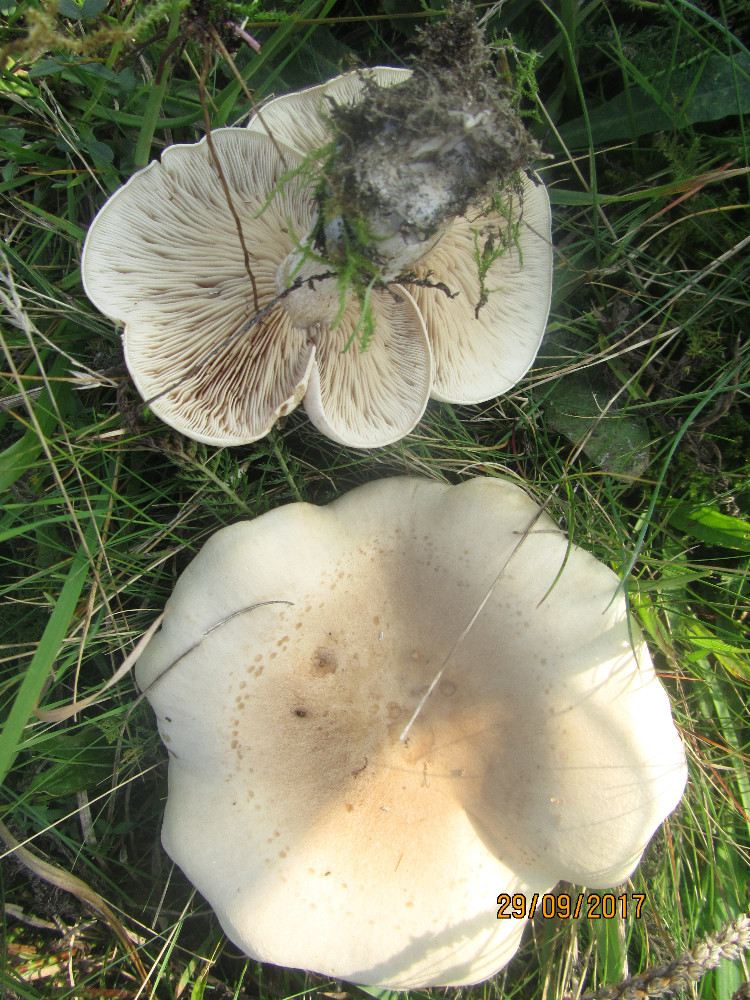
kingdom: Fungi
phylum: Basidiomycota
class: Agaricomycetes
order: Agaricales
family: Tricholomataceae
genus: Lepista
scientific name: Lepista panaeolus
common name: marmoreret hekseringshat
